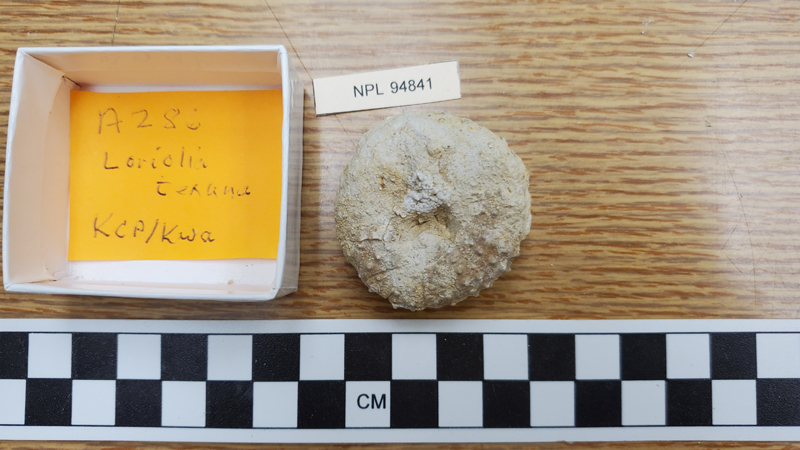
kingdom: Animalia
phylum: Echinodermata
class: Echinoidea
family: Pseudodiadematidae
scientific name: Pseudodiadematidae
